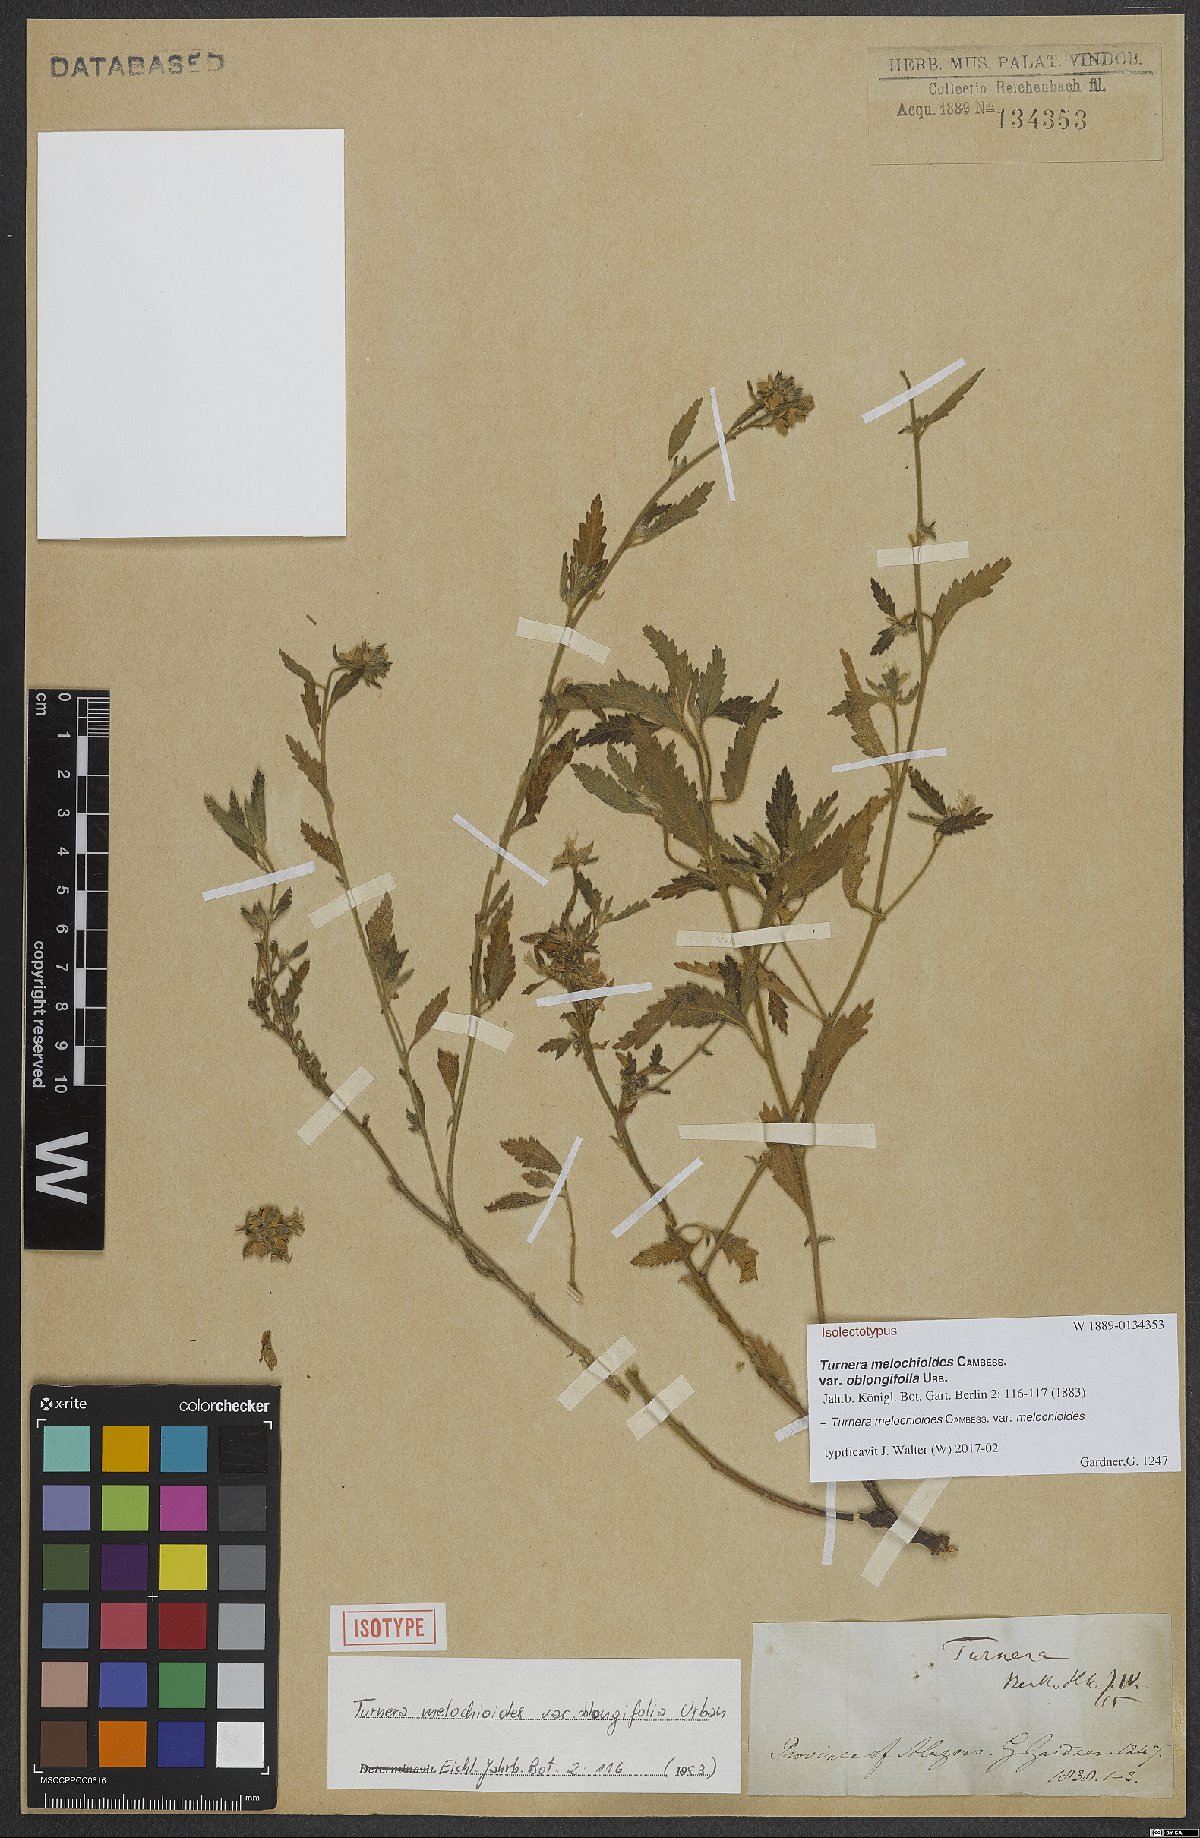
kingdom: Plantae
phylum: Tracheophyta
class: Magnoliopsida
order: Malpighiales
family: Turneraceae
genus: Turnera
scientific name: Turnera melochioides
